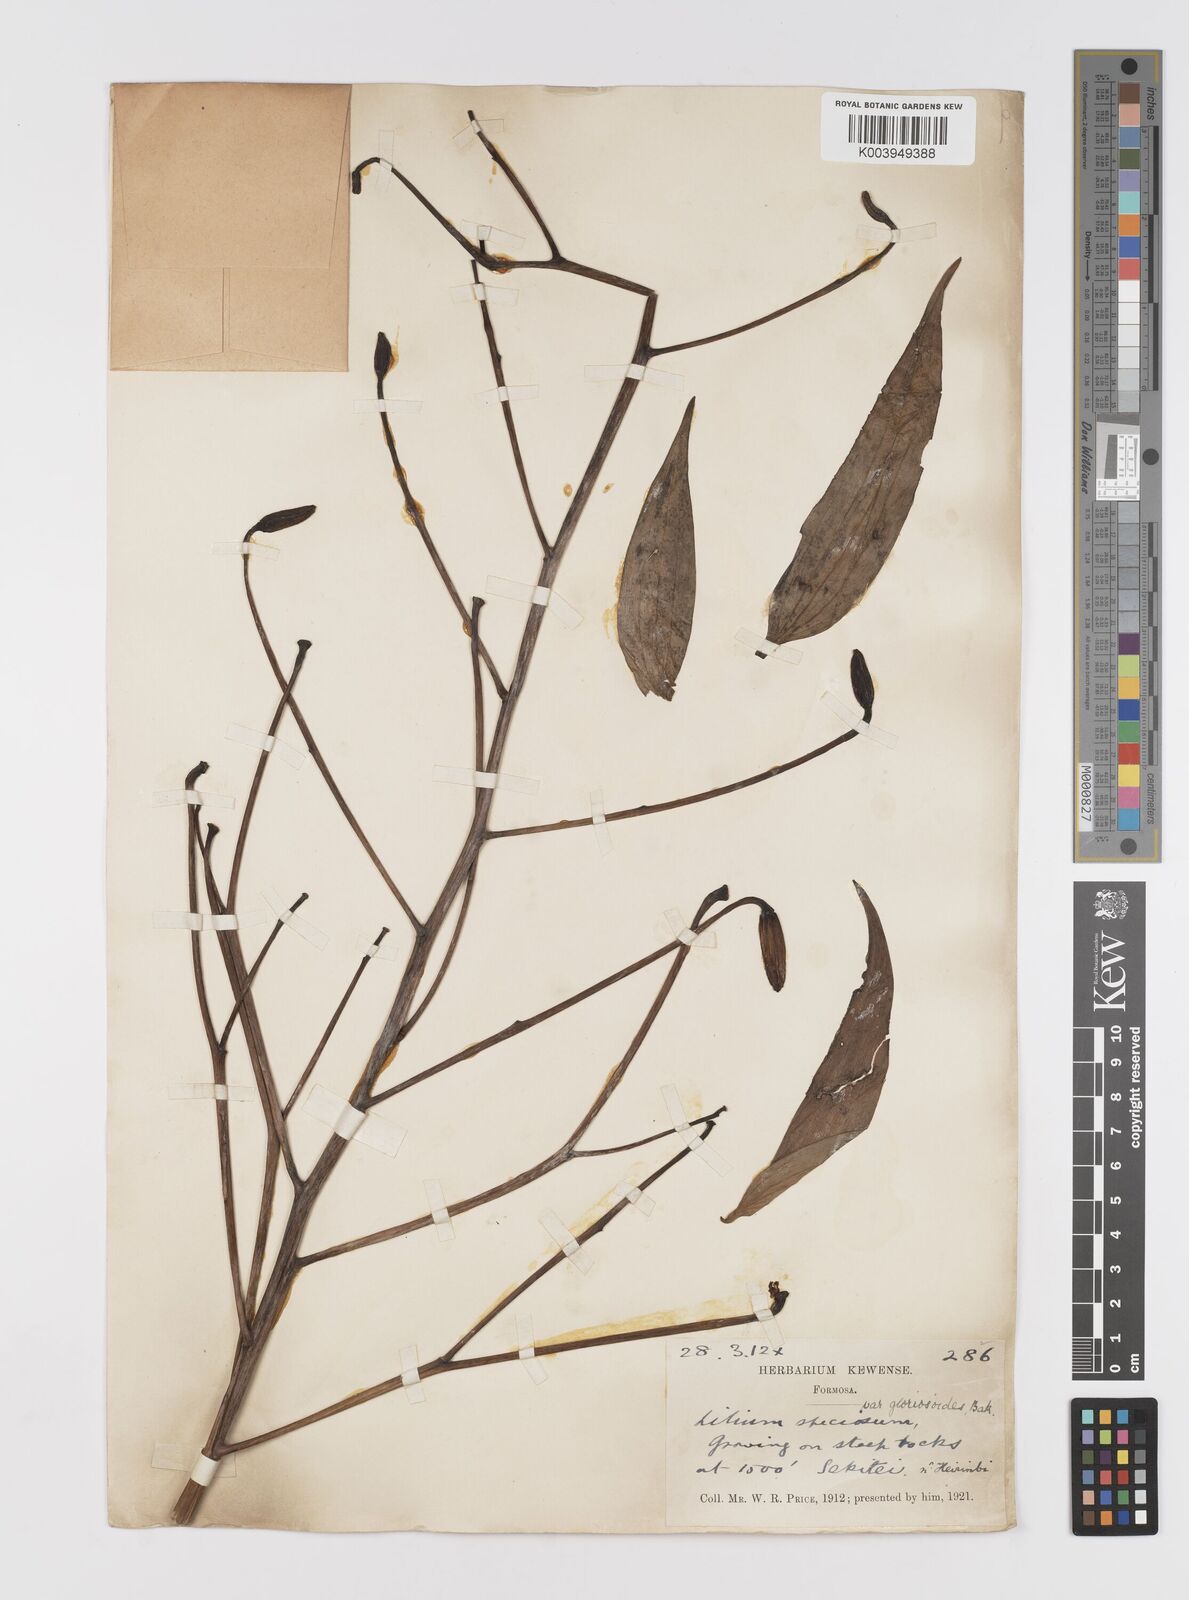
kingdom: Plantae
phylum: Tracheophyta
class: Liliopsida
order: Liliales
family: Liliaceae
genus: Lilium
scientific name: Lilium speciosum
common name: Japanese lily
